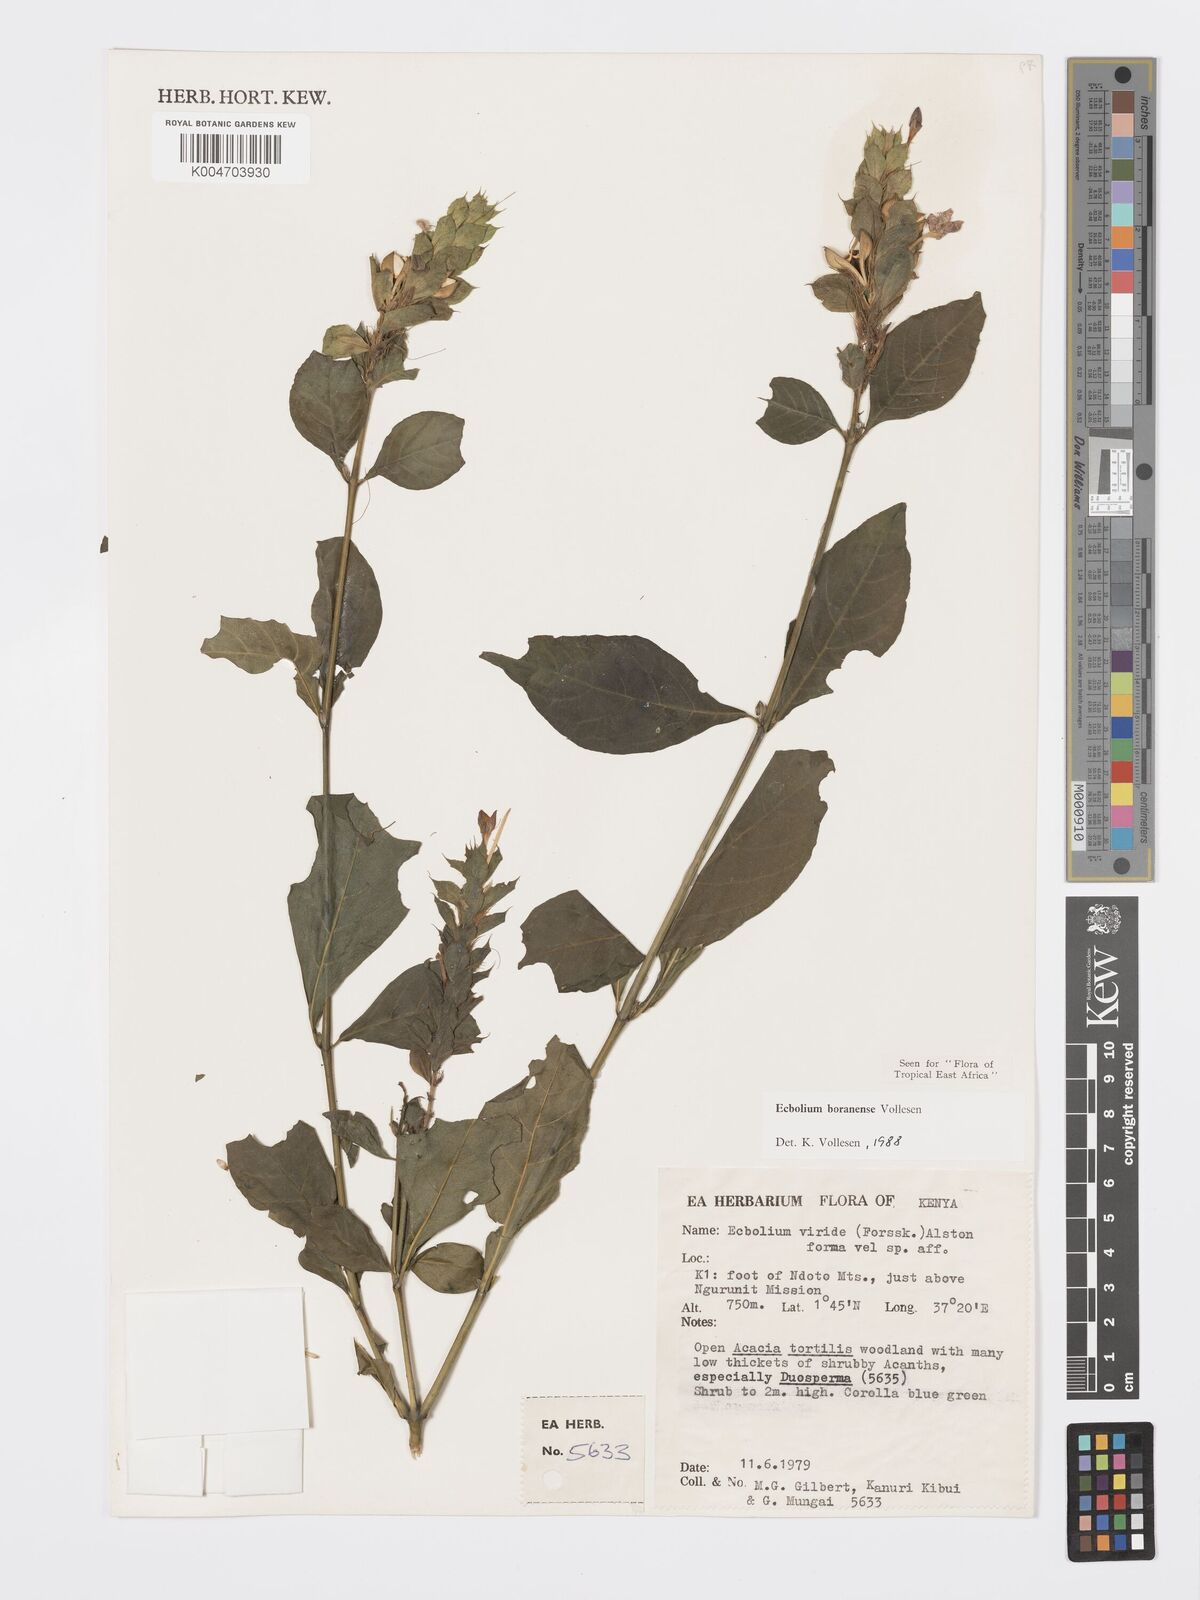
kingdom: Plantae
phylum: Tracheophyta
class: Magnoliopsida
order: Lamiales
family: Acanthaceae
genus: Ecbolium
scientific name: Ecbolium boranense
